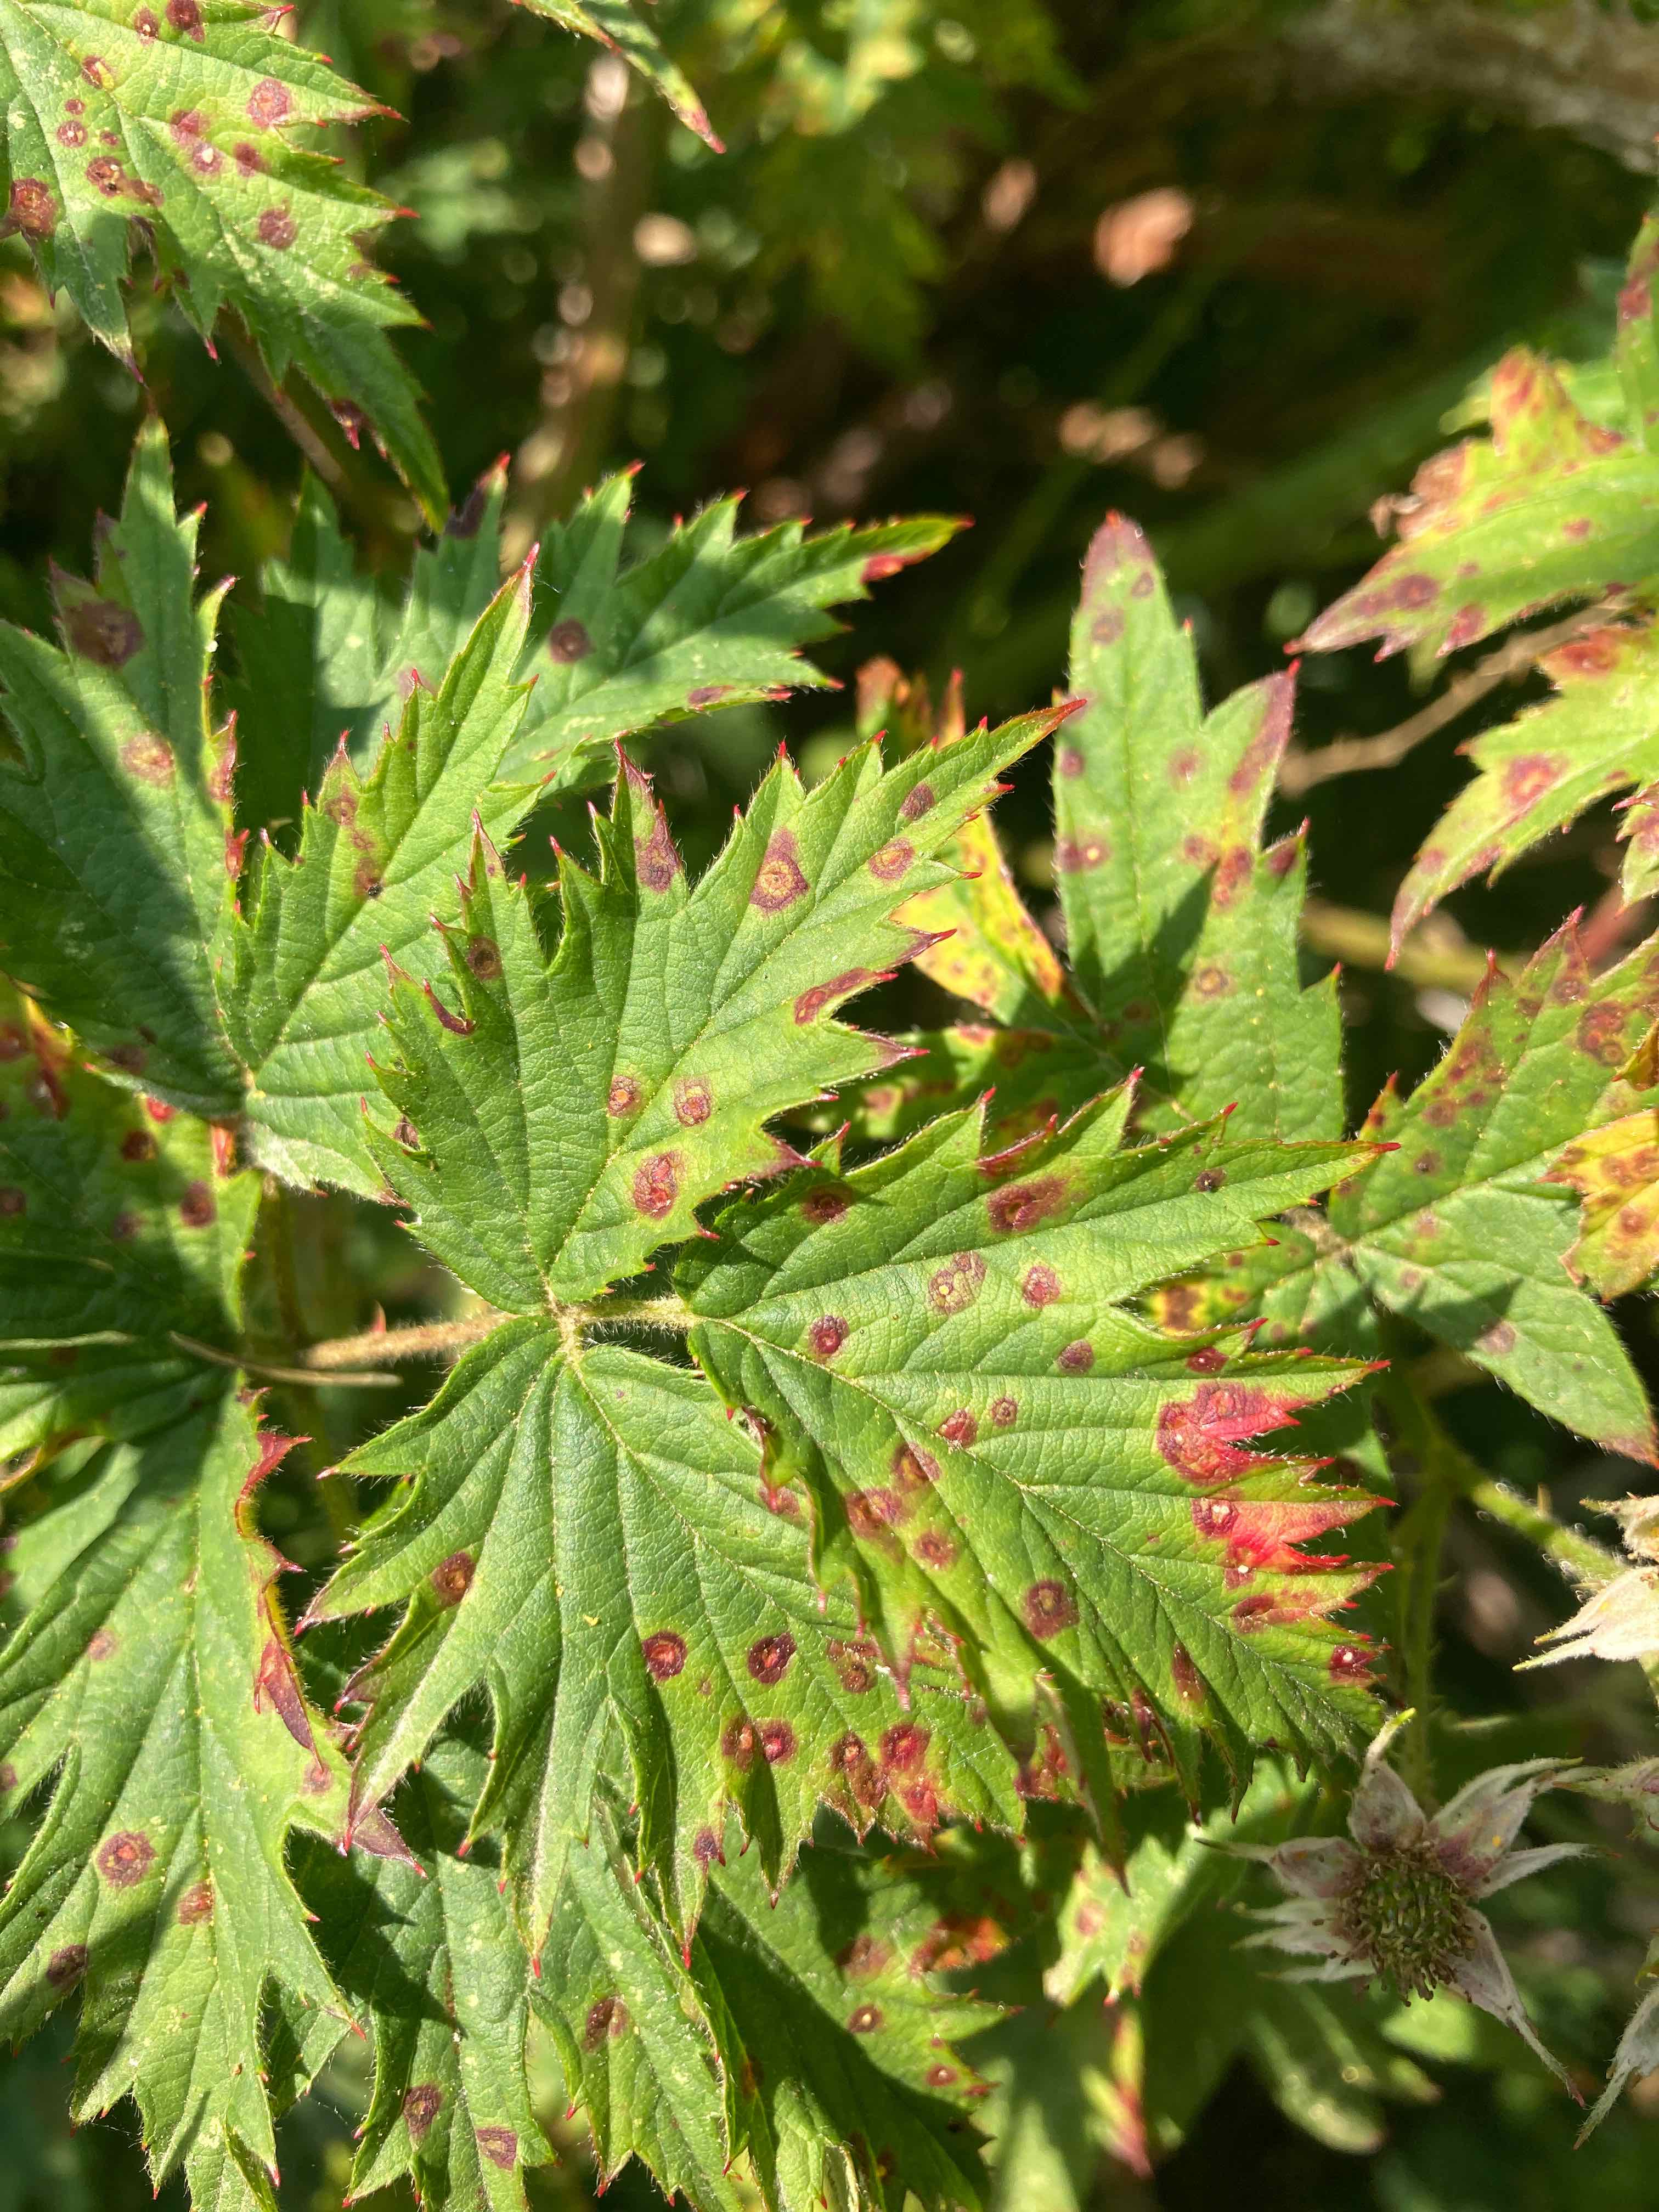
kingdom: Fungi
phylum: Basidiomycota
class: Pucciniomycetes
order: Pucciniales
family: Phragmidiaceae
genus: Phragmidium
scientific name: Phragmidium violaceum
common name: violet flercellerust
